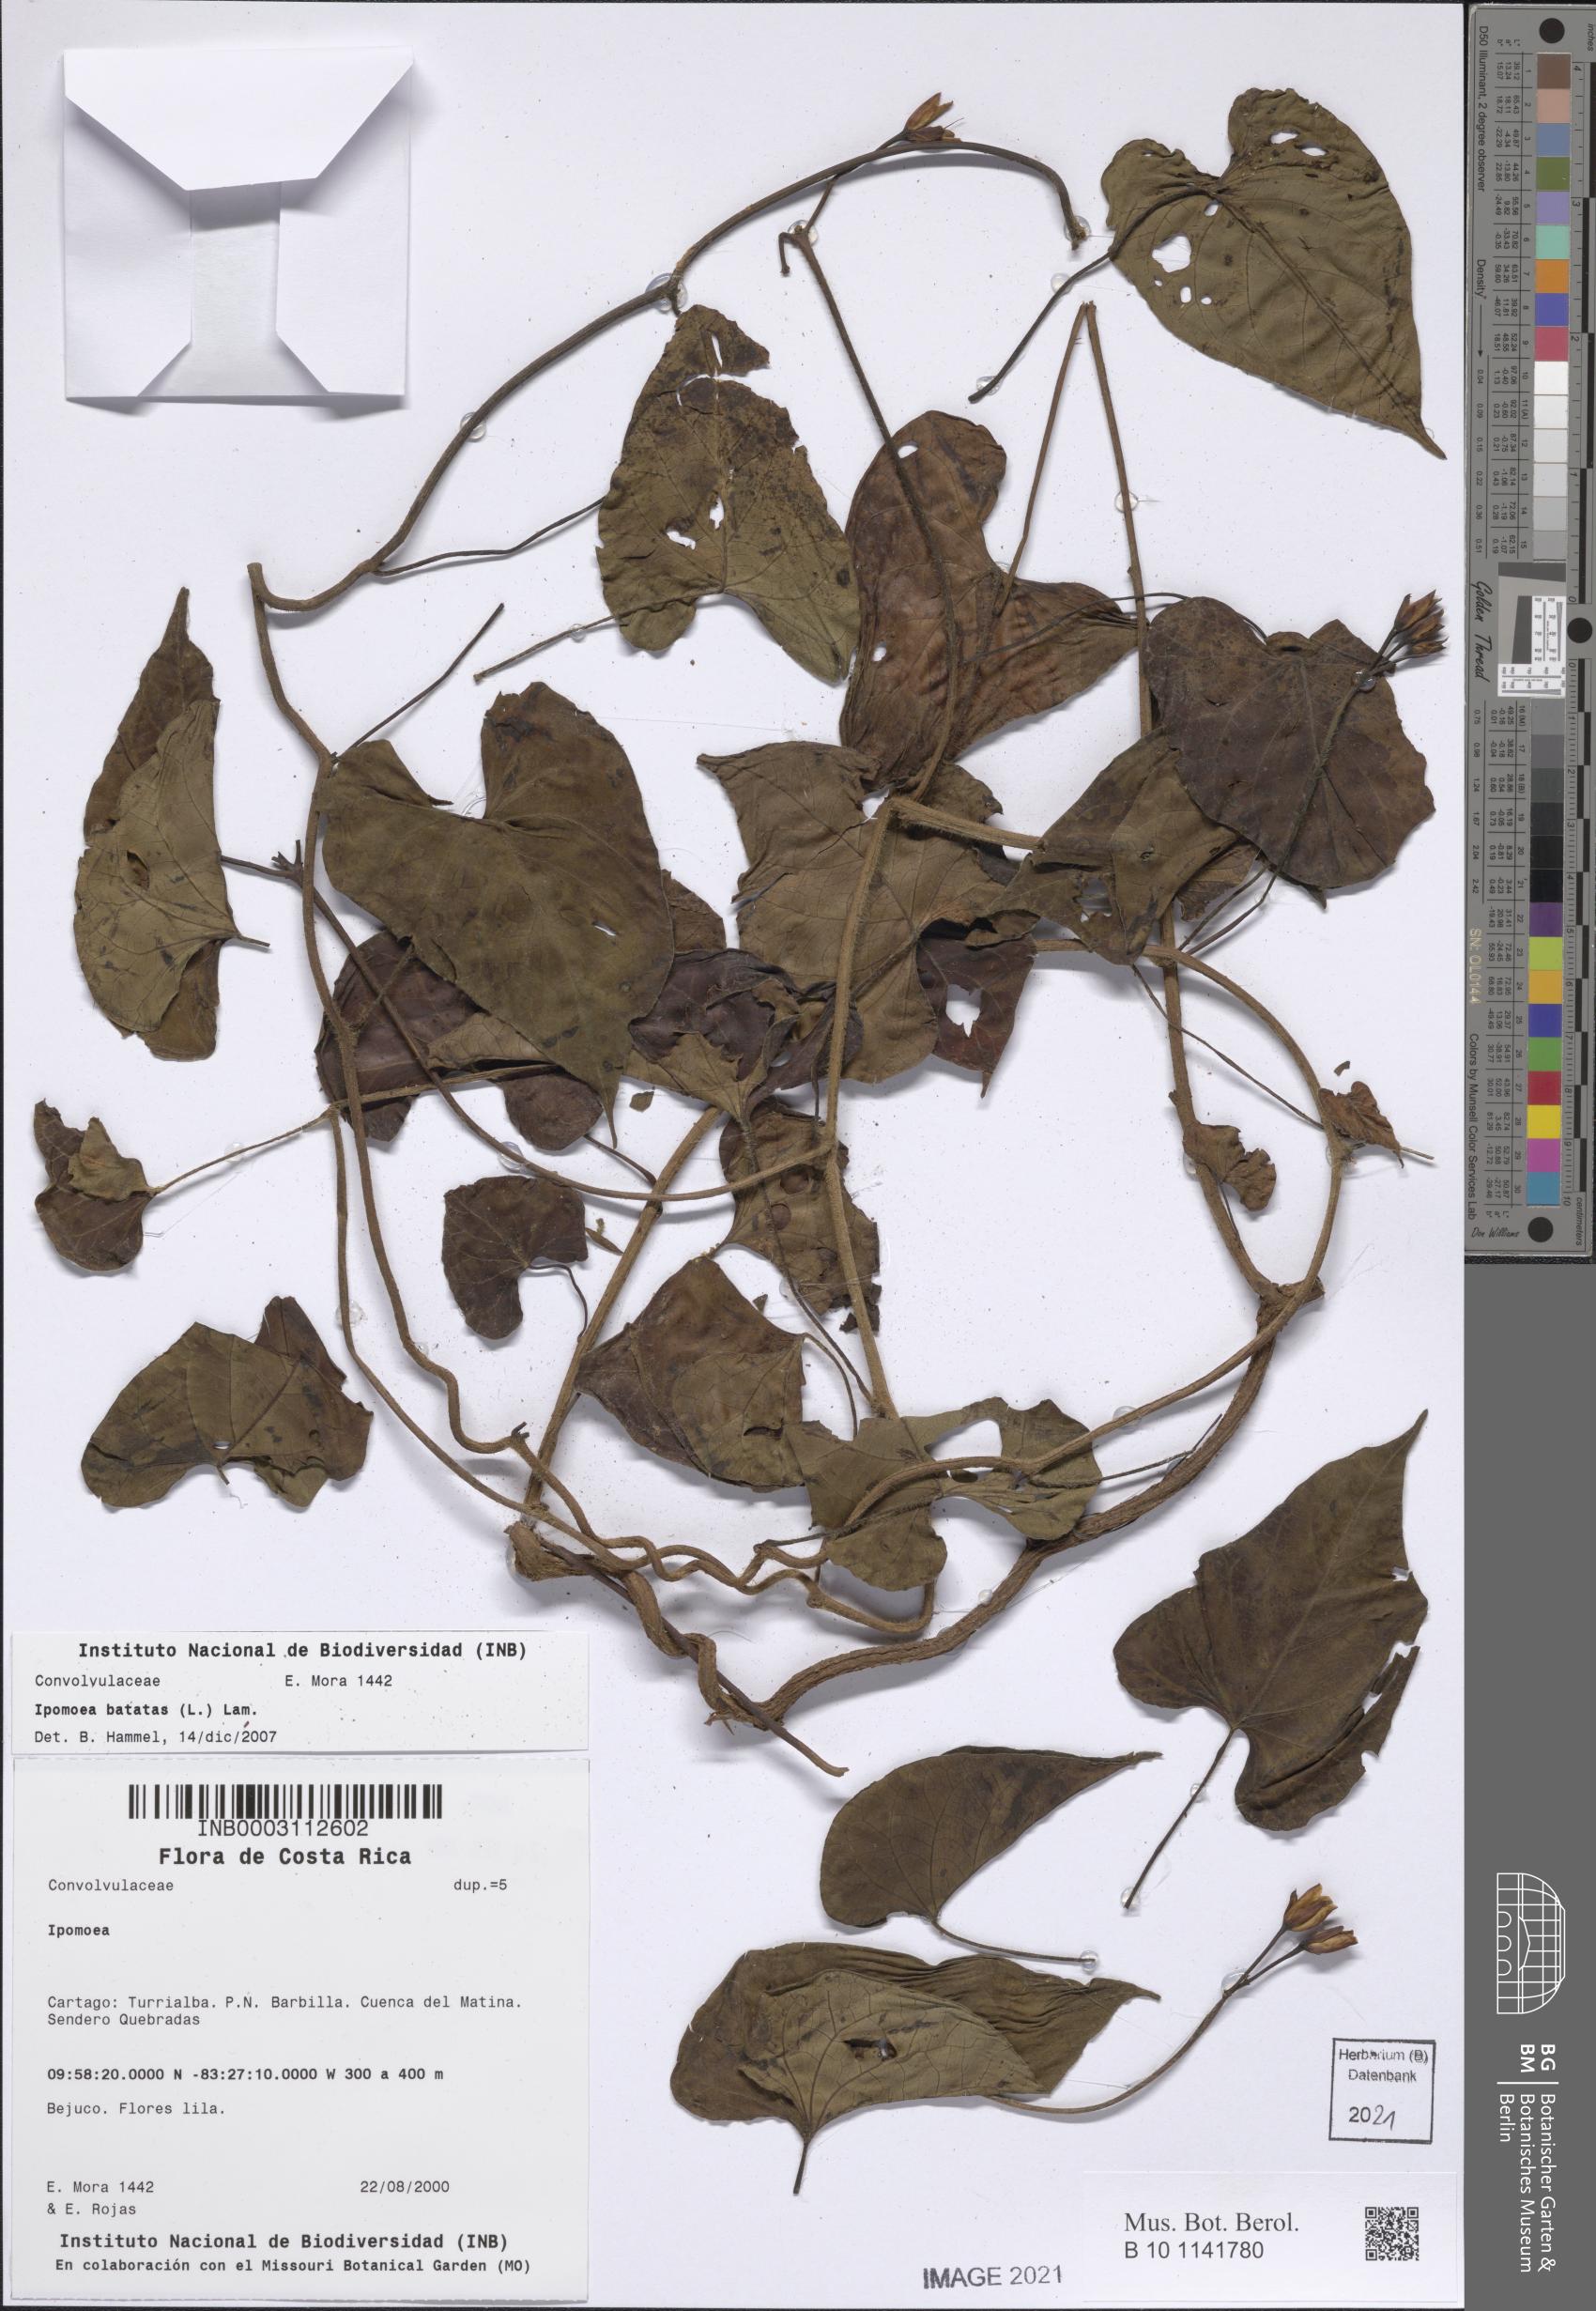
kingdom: Plantae
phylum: Tracheophyta
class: Magnoliopsida
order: Solanales
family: Convolvulaceae
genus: Ipomoea
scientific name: Ipomoea batatas
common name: Sweet-potato
